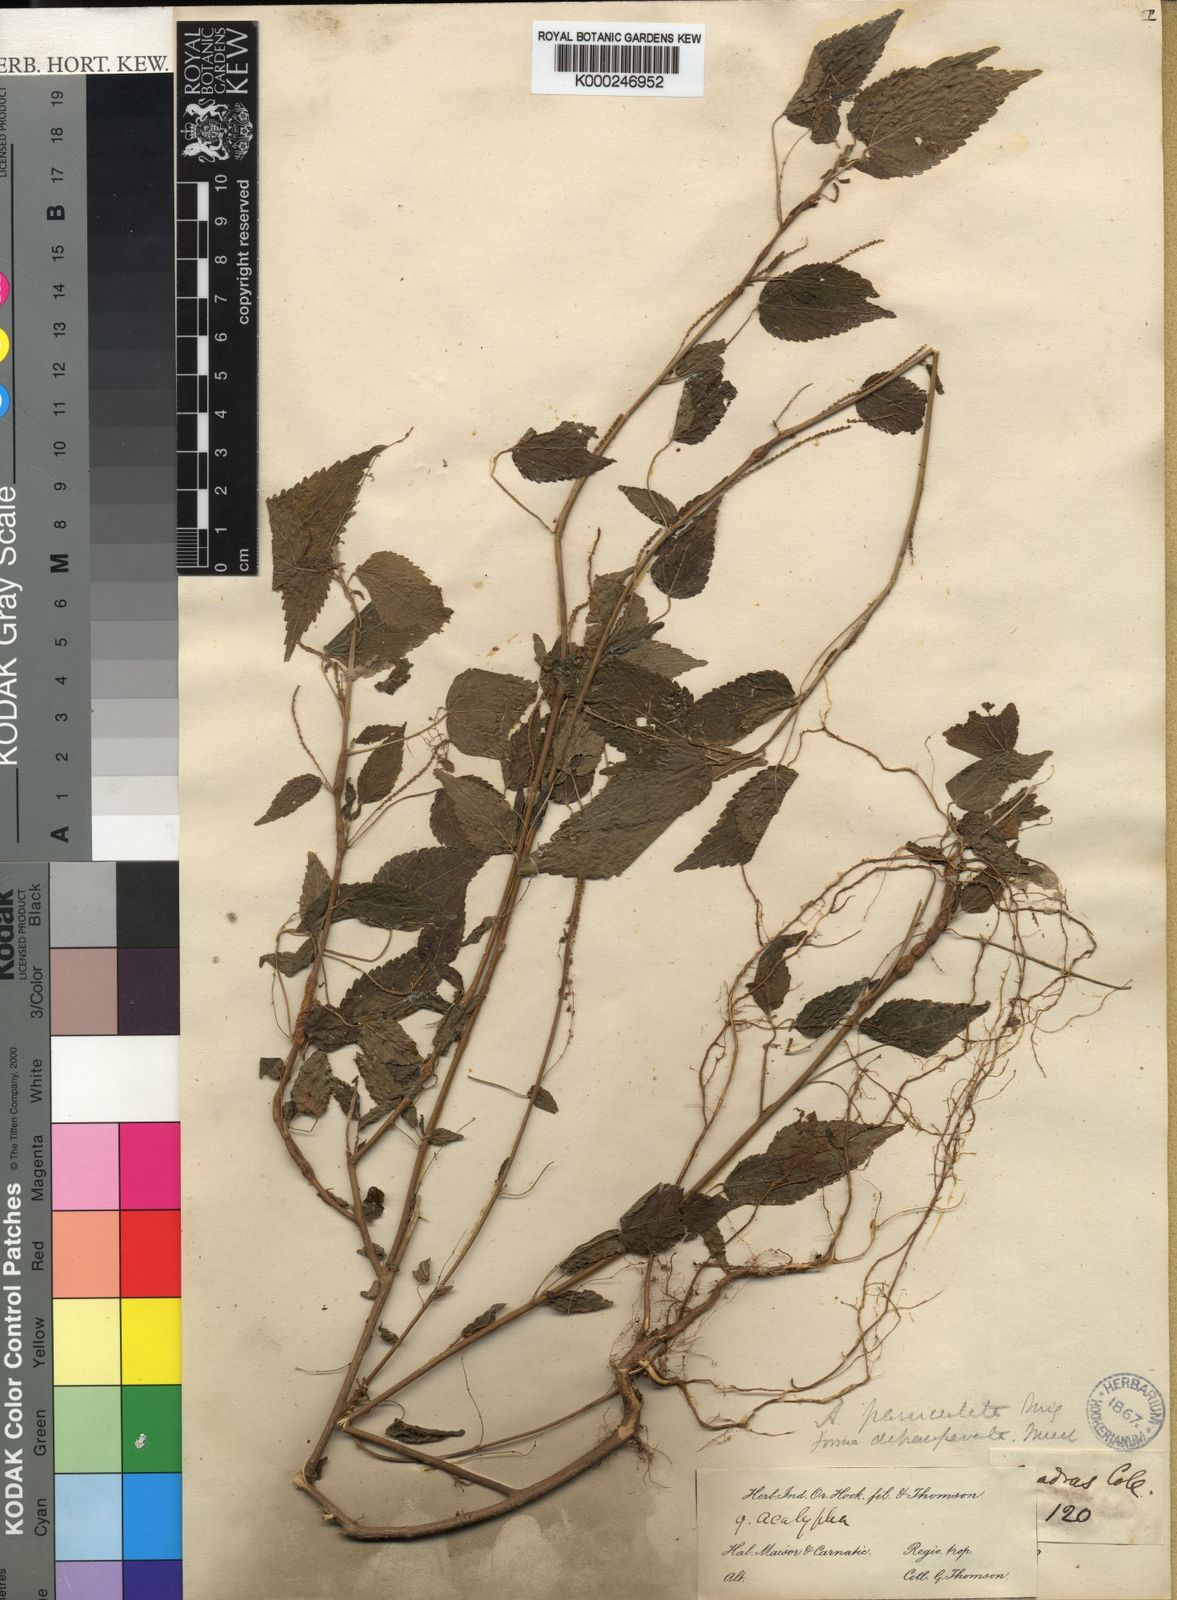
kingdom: Plantae
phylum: Tracheophyta
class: Magnoliopsida
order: Malpighiales
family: Euphorbiaceae
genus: Acalypha
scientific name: Acalypha paniculata
